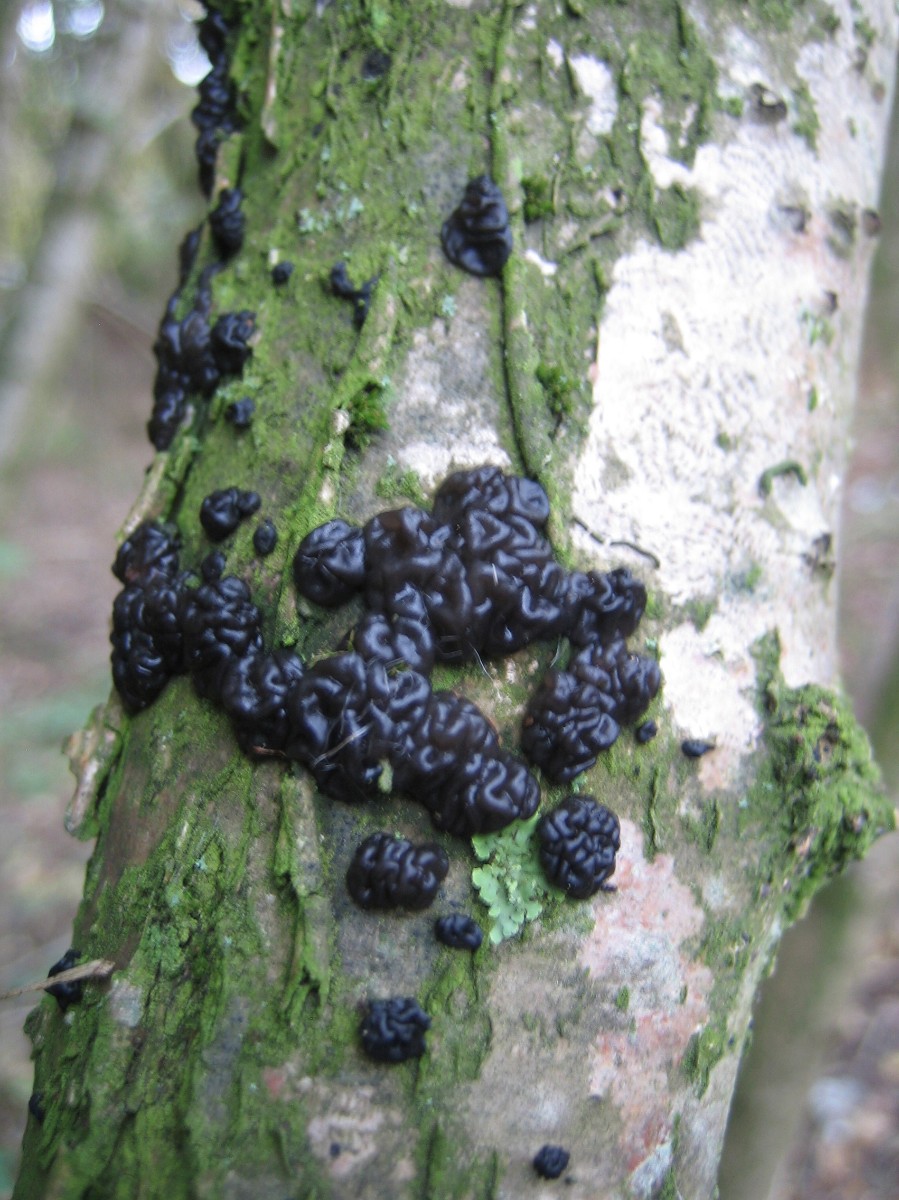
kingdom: Fungi
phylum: Basidiomycota
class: Agaricomycetes
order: Auriculariales
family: Auriculariaceae
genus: Exidia
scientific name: Exidia nigricans
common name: almindelig bævretop
